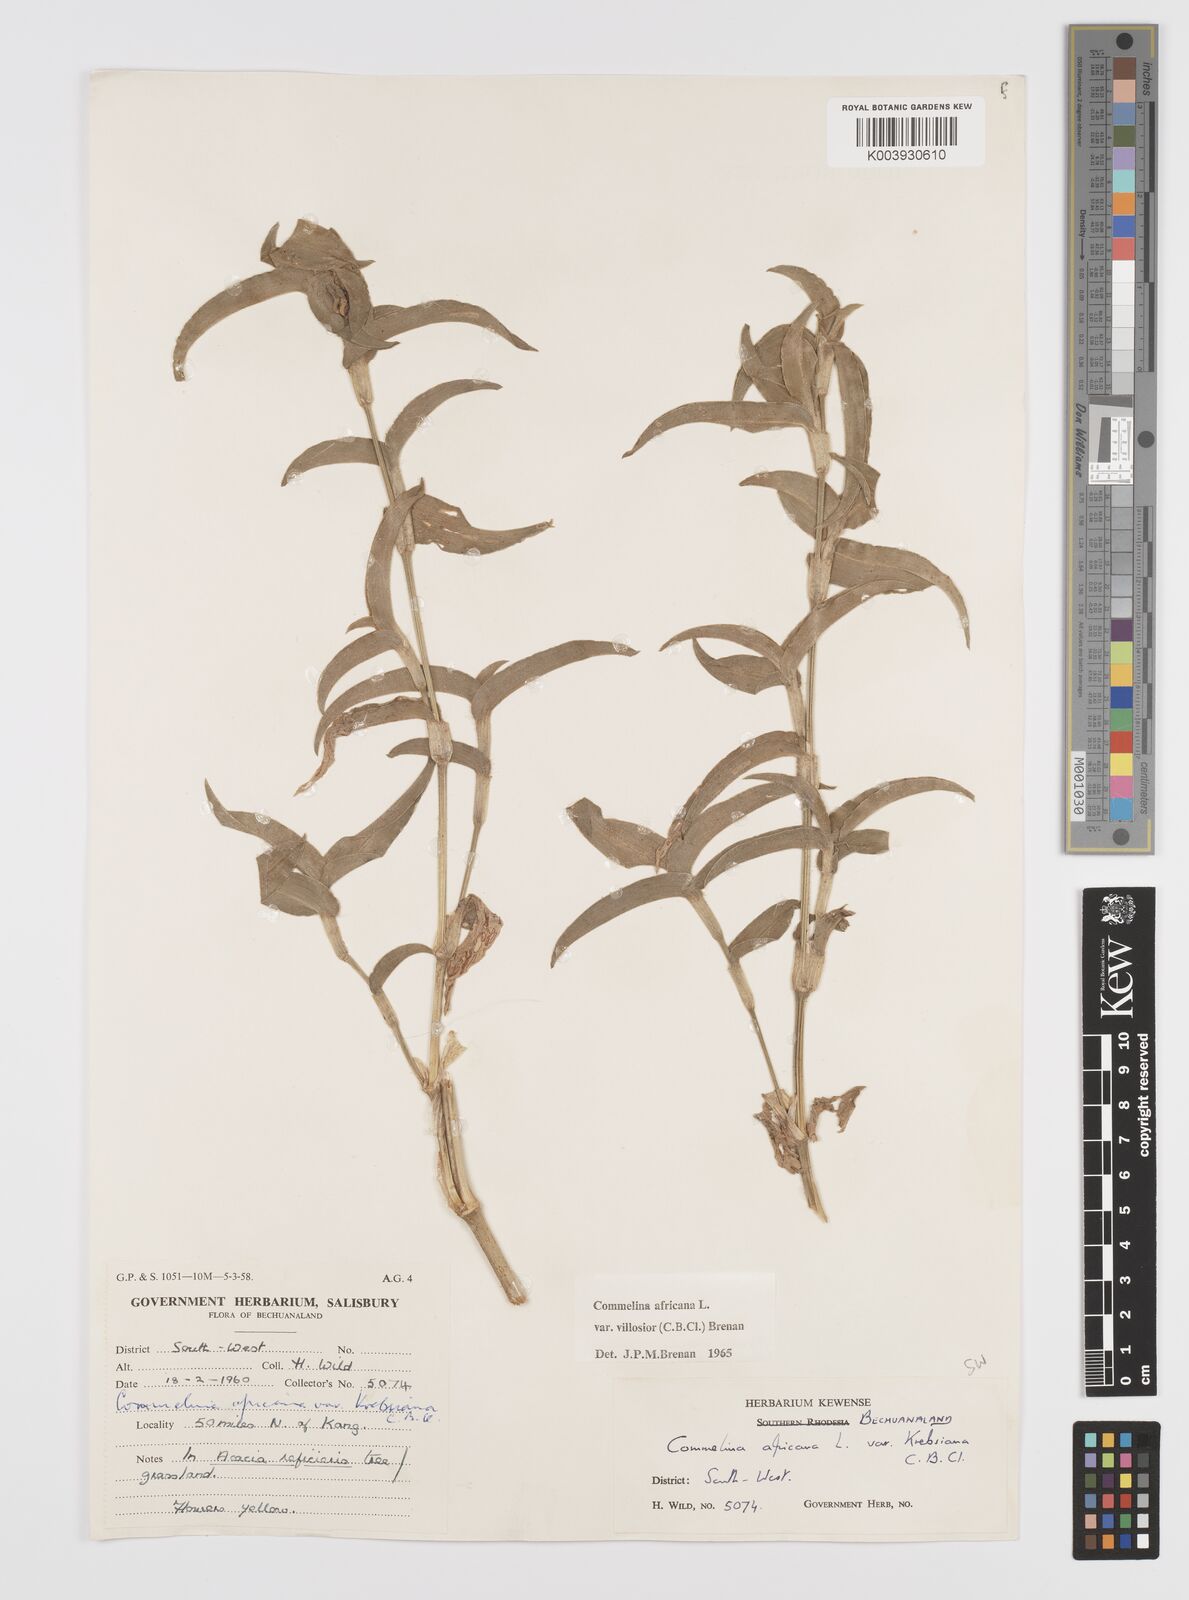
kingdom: Plantae
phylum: Tracheophyta
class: Liliopsida
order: Commelinales
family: Commelinaceae
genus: Commelina
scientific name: Commelina africana
